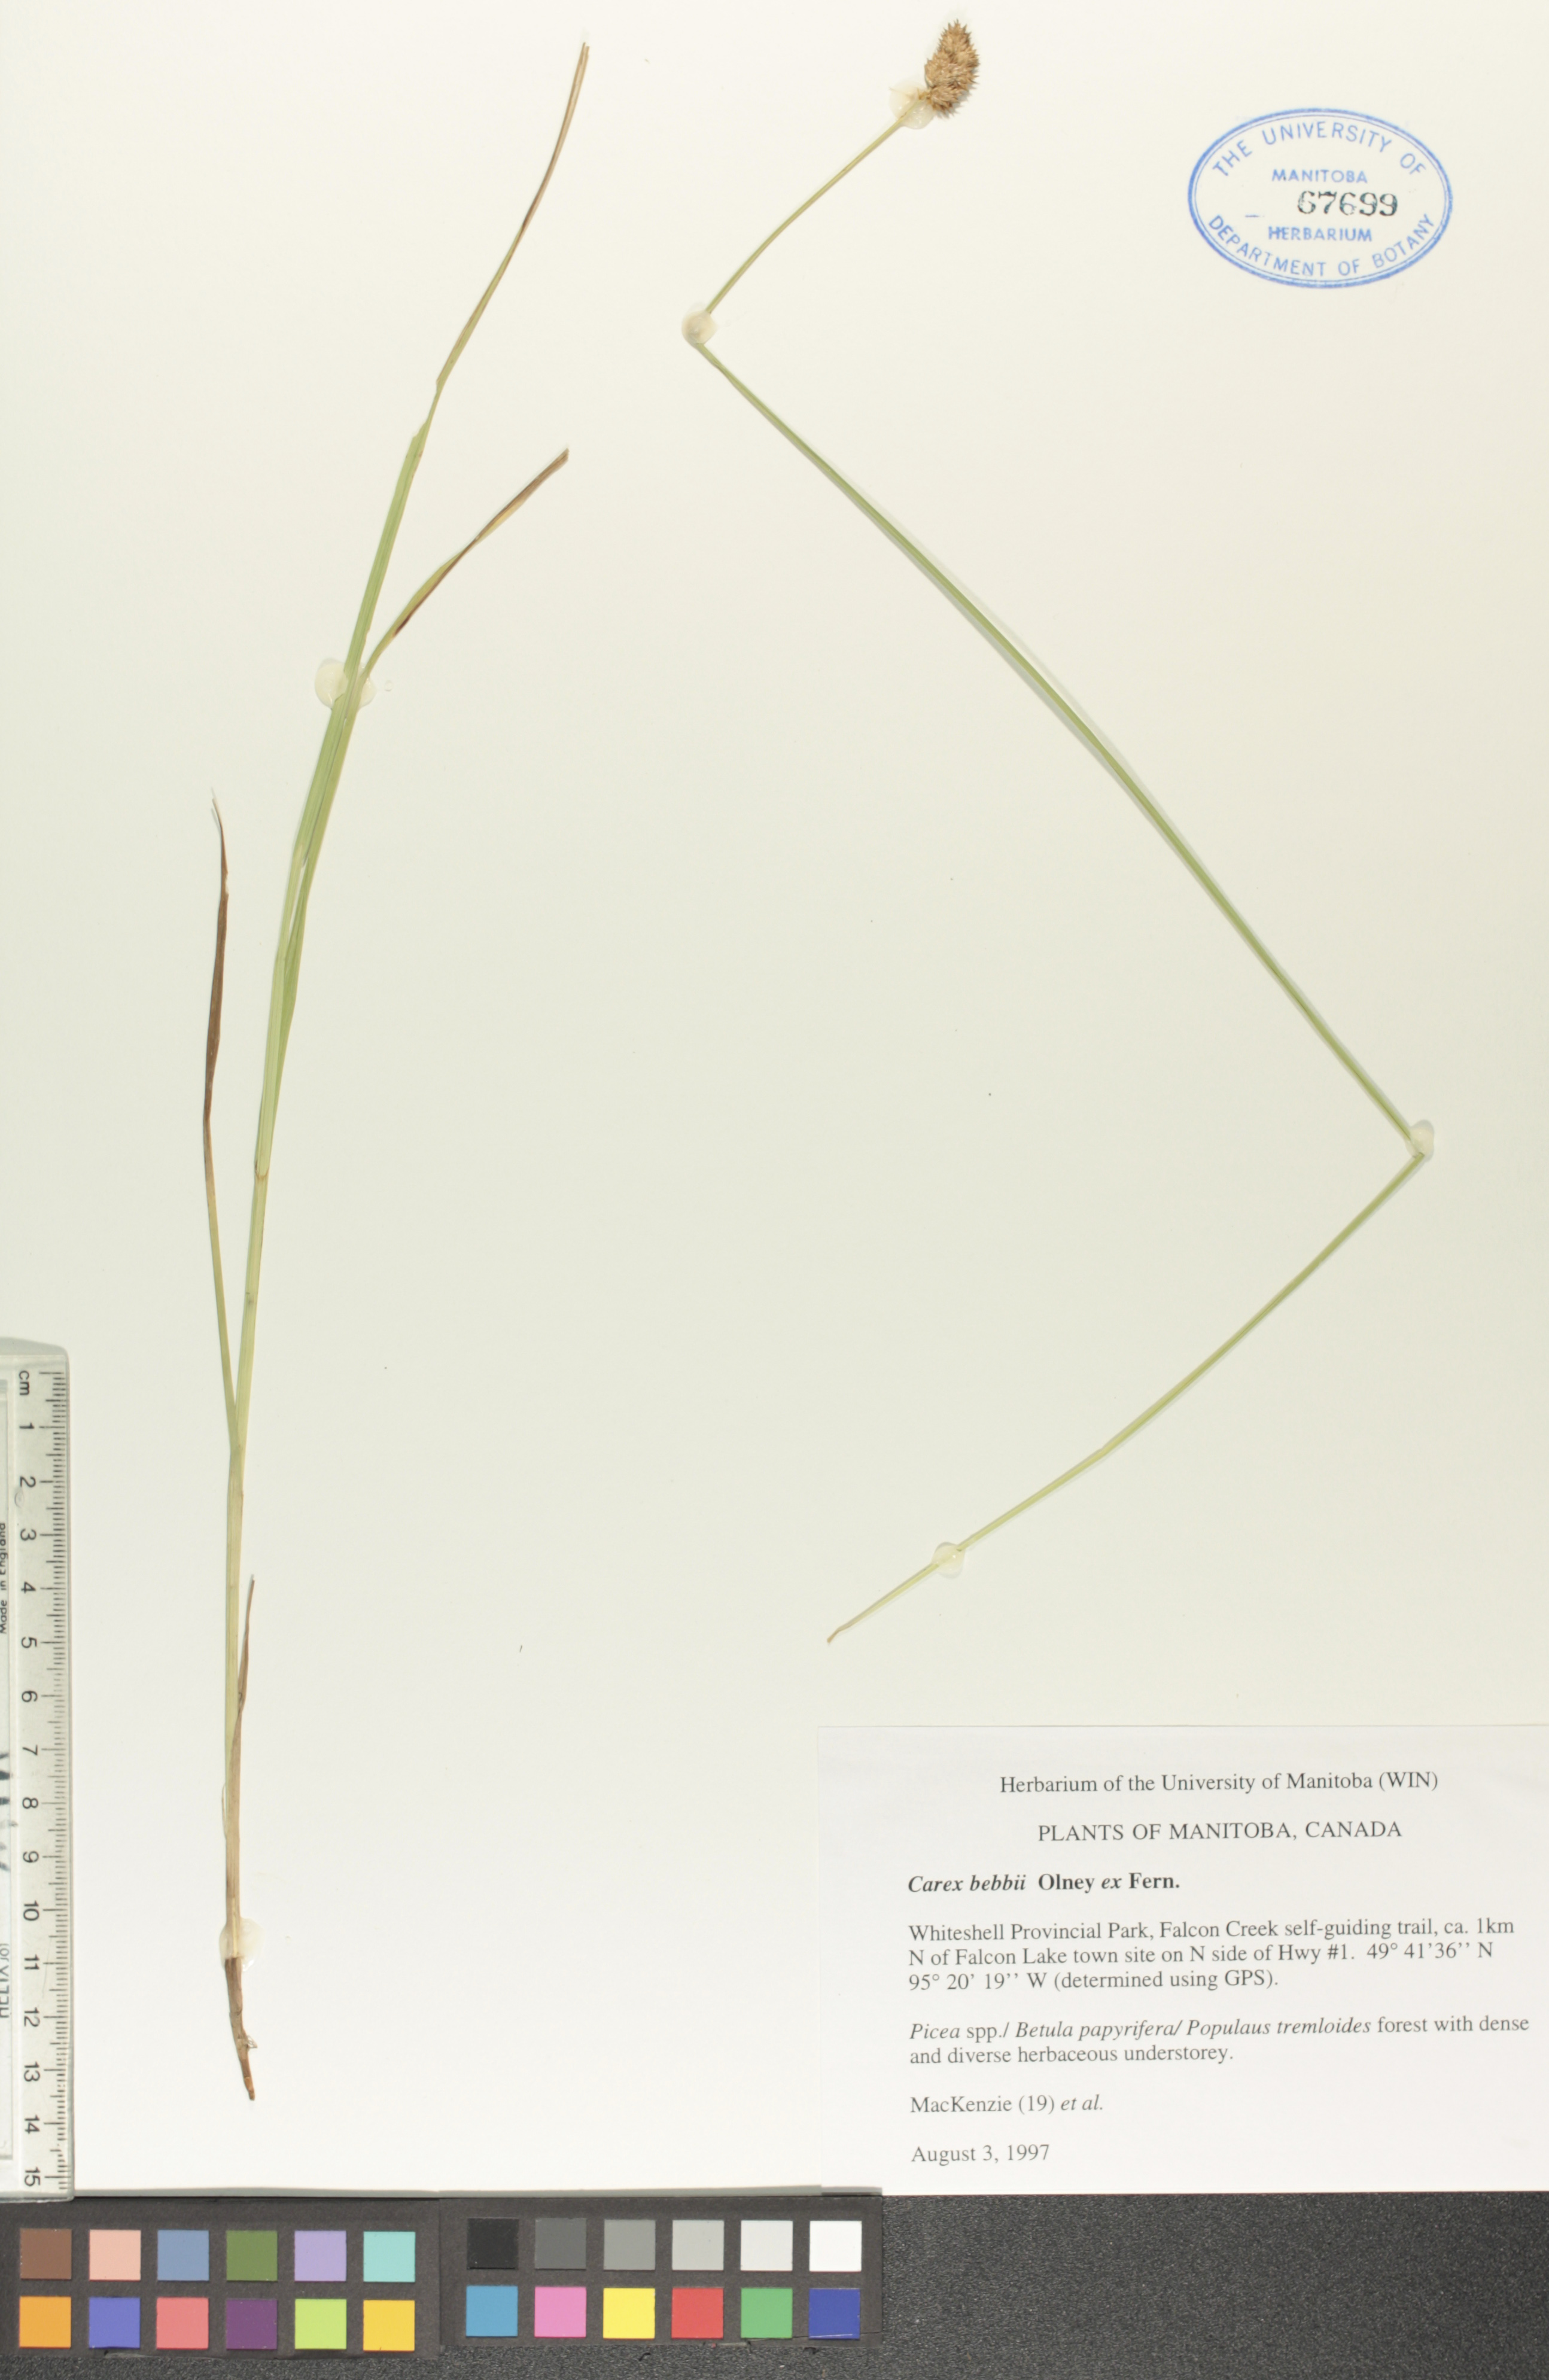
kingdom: Plantae
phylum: Tracheophyta
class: Liliopsida
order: Poales
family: Cyperaceae
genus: Carex
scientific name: Carex bebbii
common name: Bebb's sedge
